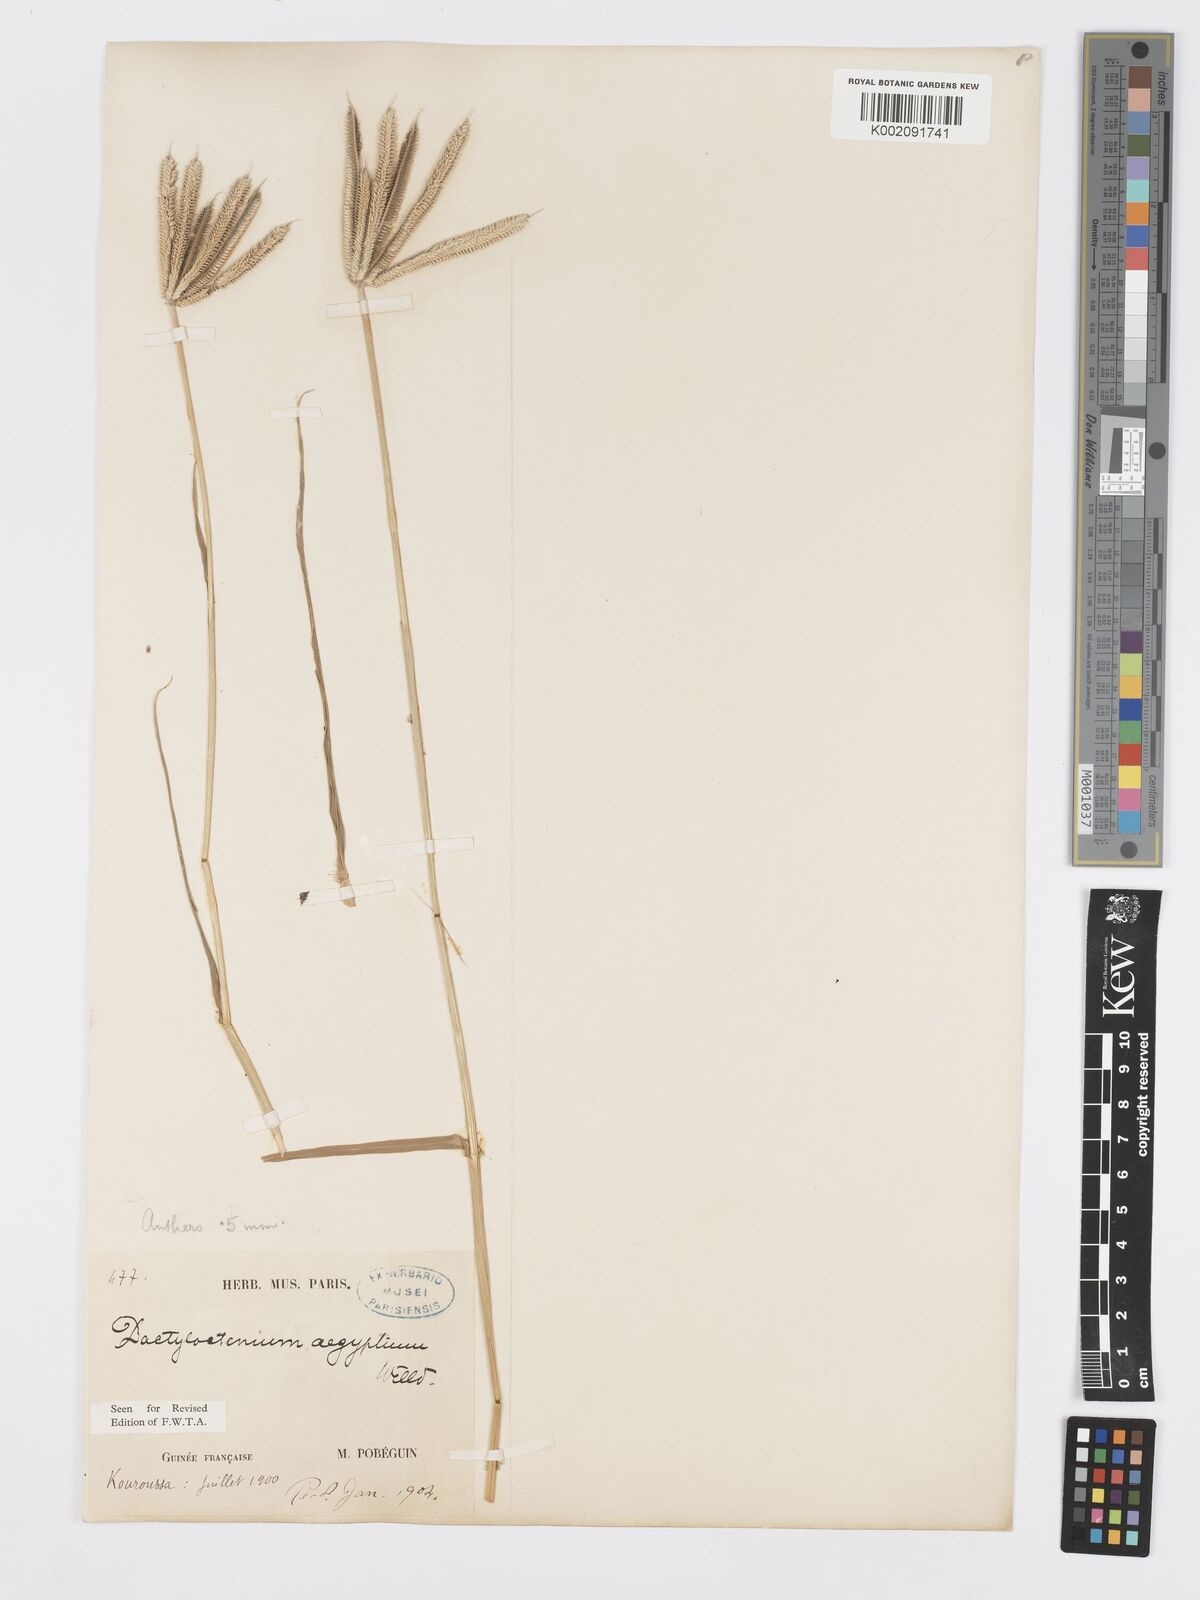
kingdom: Plantae
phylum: Tracheophyta
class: Liliopsida
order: Poales
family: Poaceae
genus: Dactyloctenium
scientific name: Dactyloctenium aegyptium
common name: Egyptian grass
